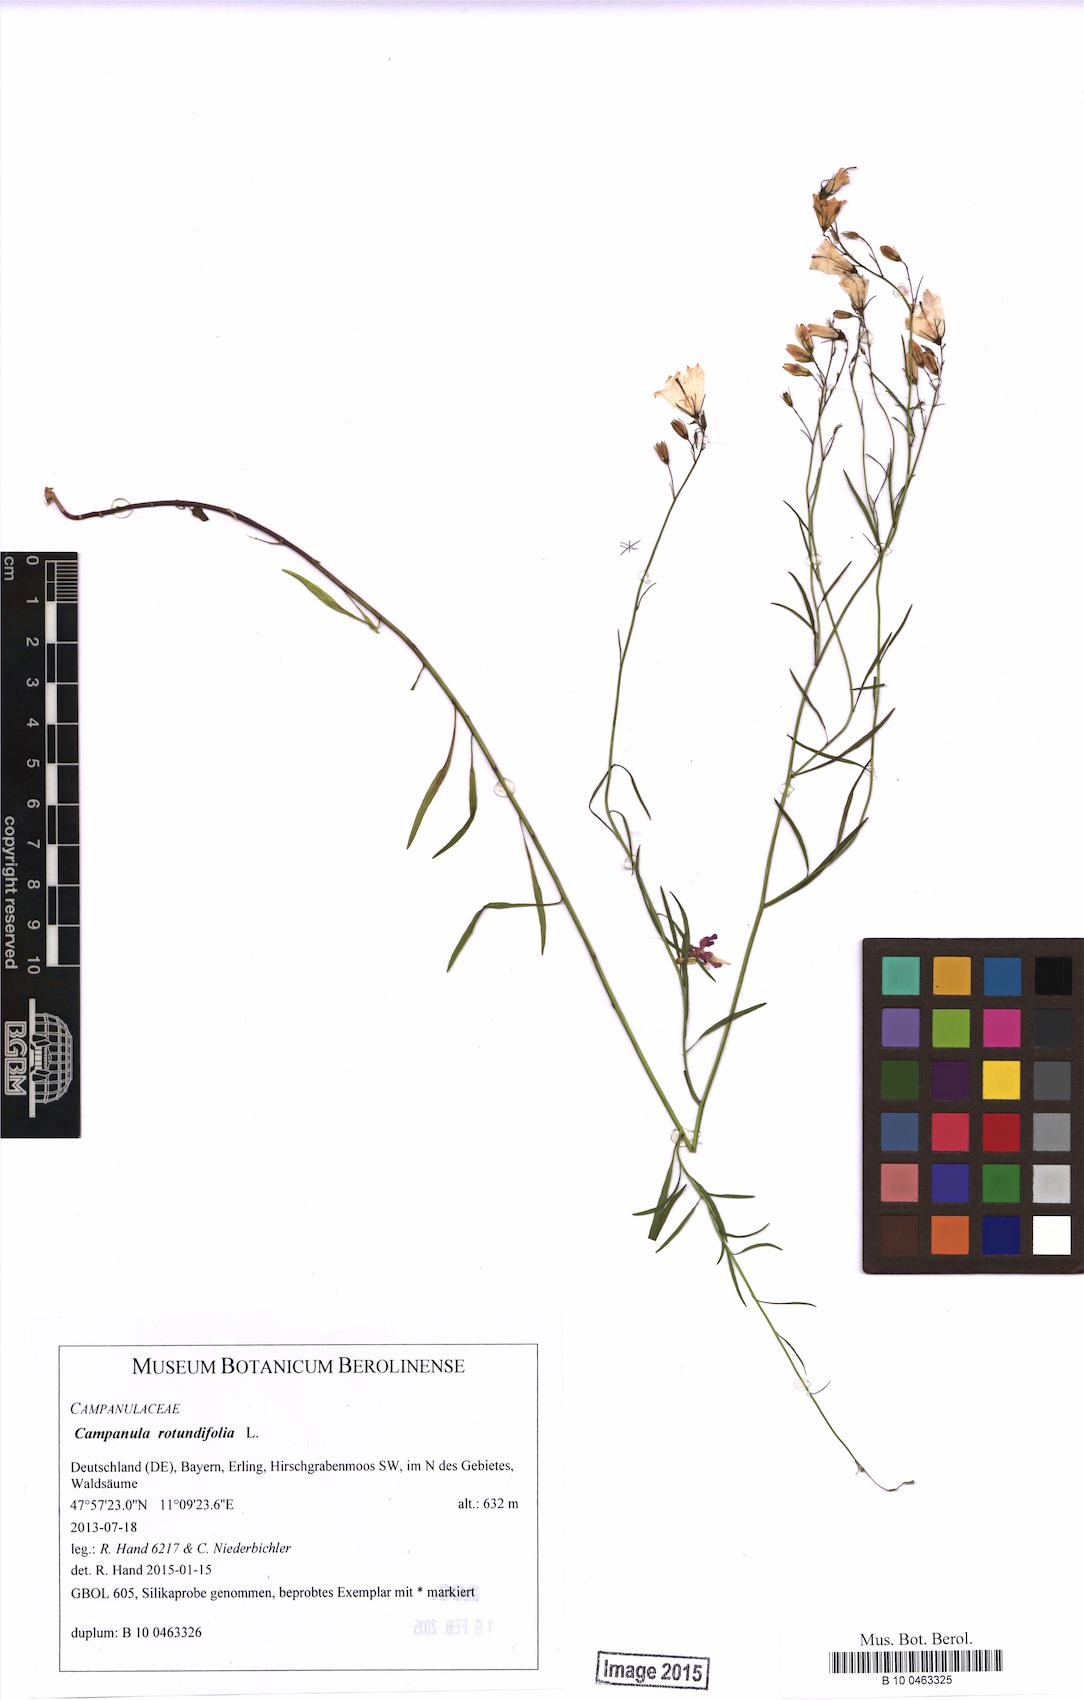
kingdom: Plantae
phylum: Tracheophyta
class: Magnoliopsida
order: Asterales
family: Campanulaceae
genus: Campanula
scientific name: Campanula rotundifolia
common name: Harebell
